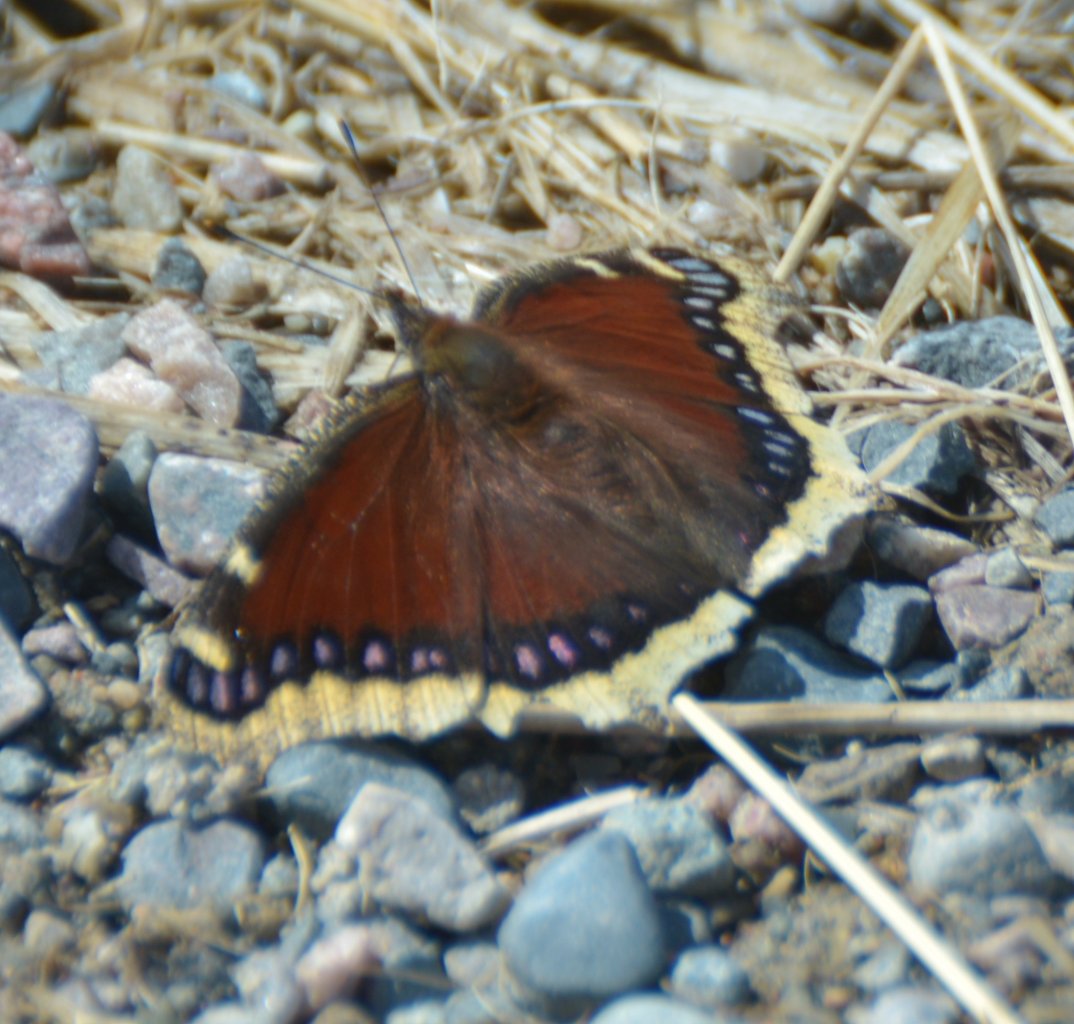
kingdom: Animalia
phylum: Arthropoda
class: Insecta
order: Lepidoptera
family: Nymphalidae
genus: Nymphalis
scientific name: Nymphalis antiopa
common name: Mourning Cloak
